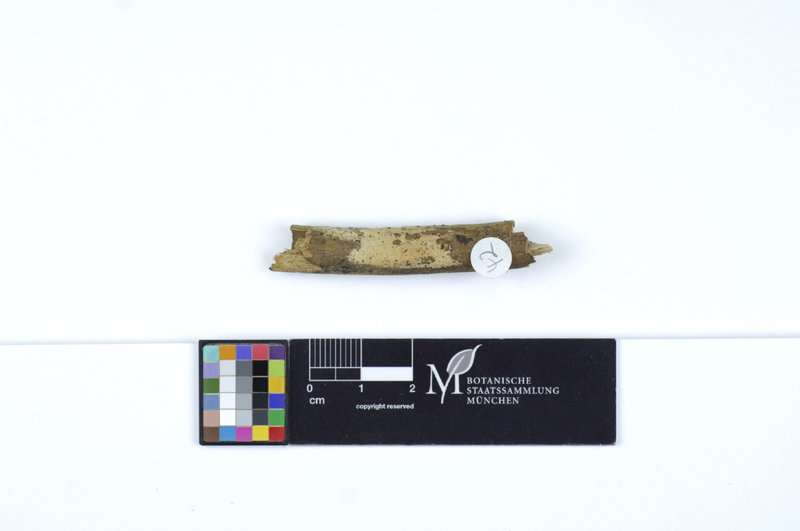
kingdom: Fungi
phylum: Basidiomycota
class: Agaricomycetes
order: Polyporales
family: Irpicaceae
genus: Ceriporia
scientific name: Ceriporia reticulata
